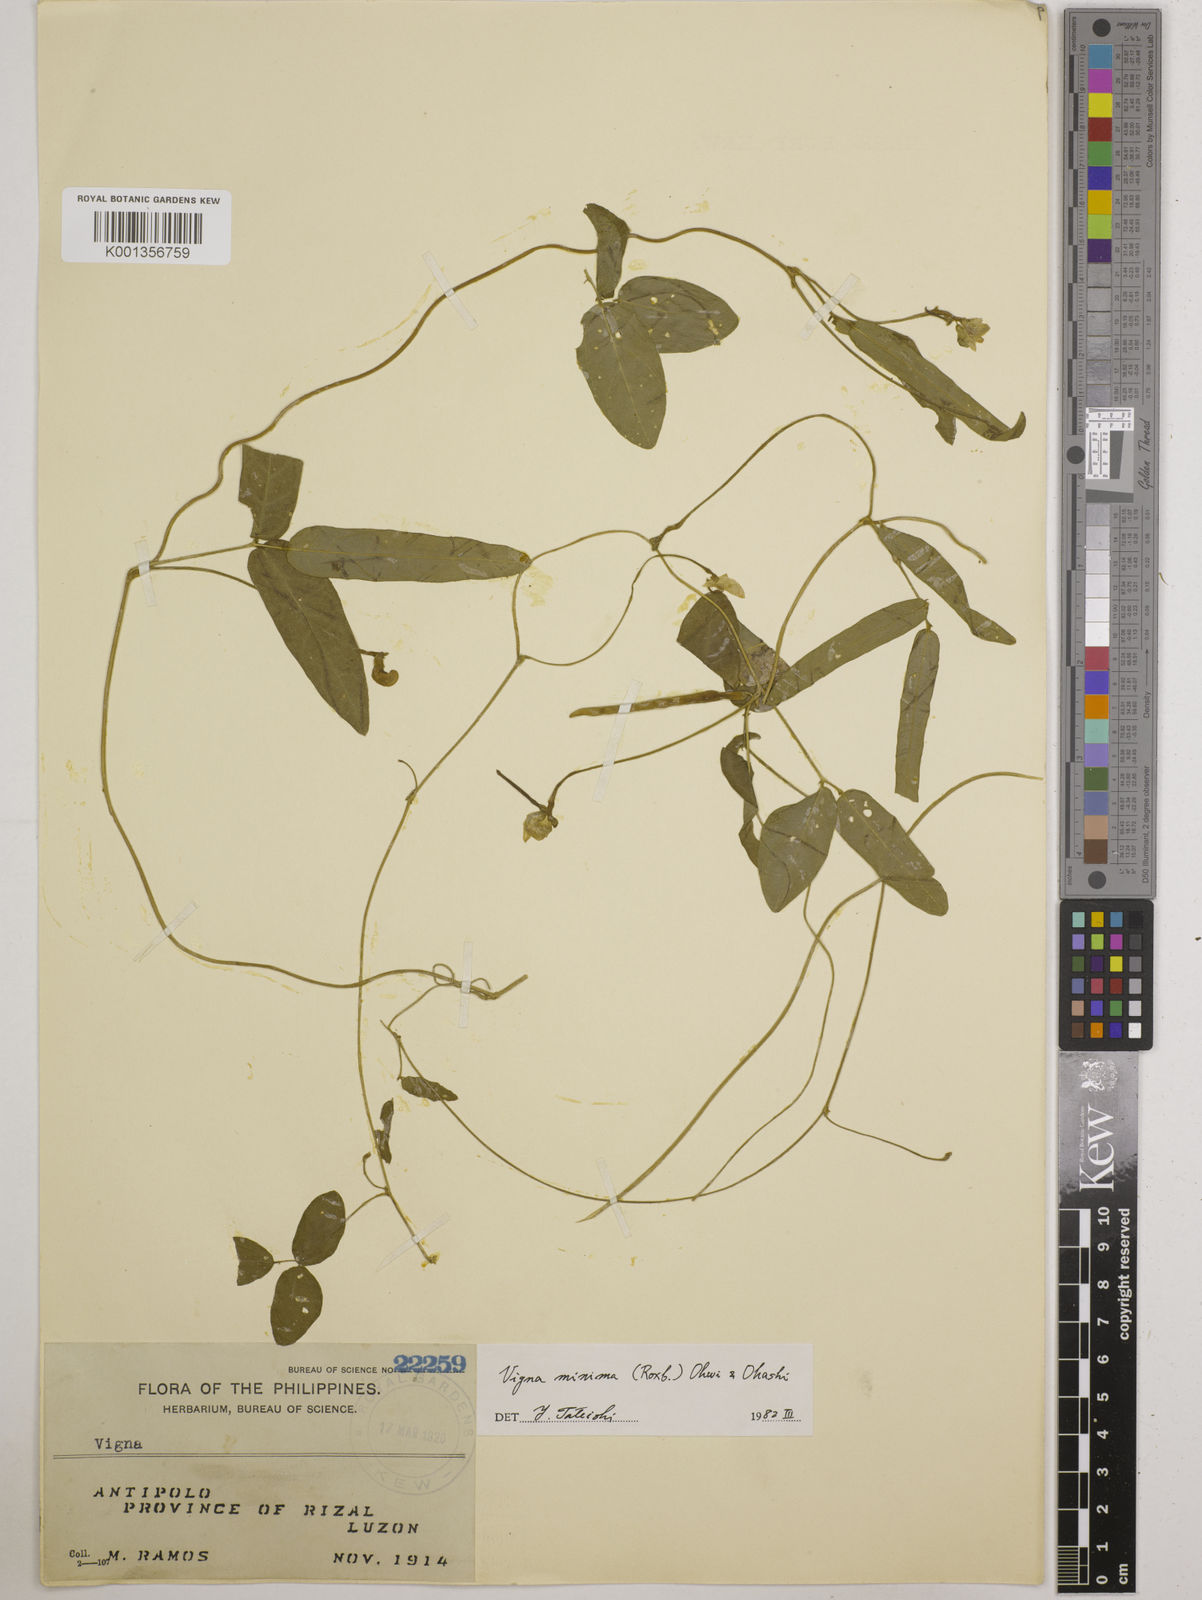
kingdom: Plantae
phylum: Tracheophyta
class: Magnoliopsida
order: Fabales
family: Fabaceae
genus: Vigna
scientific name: Vigna minima
